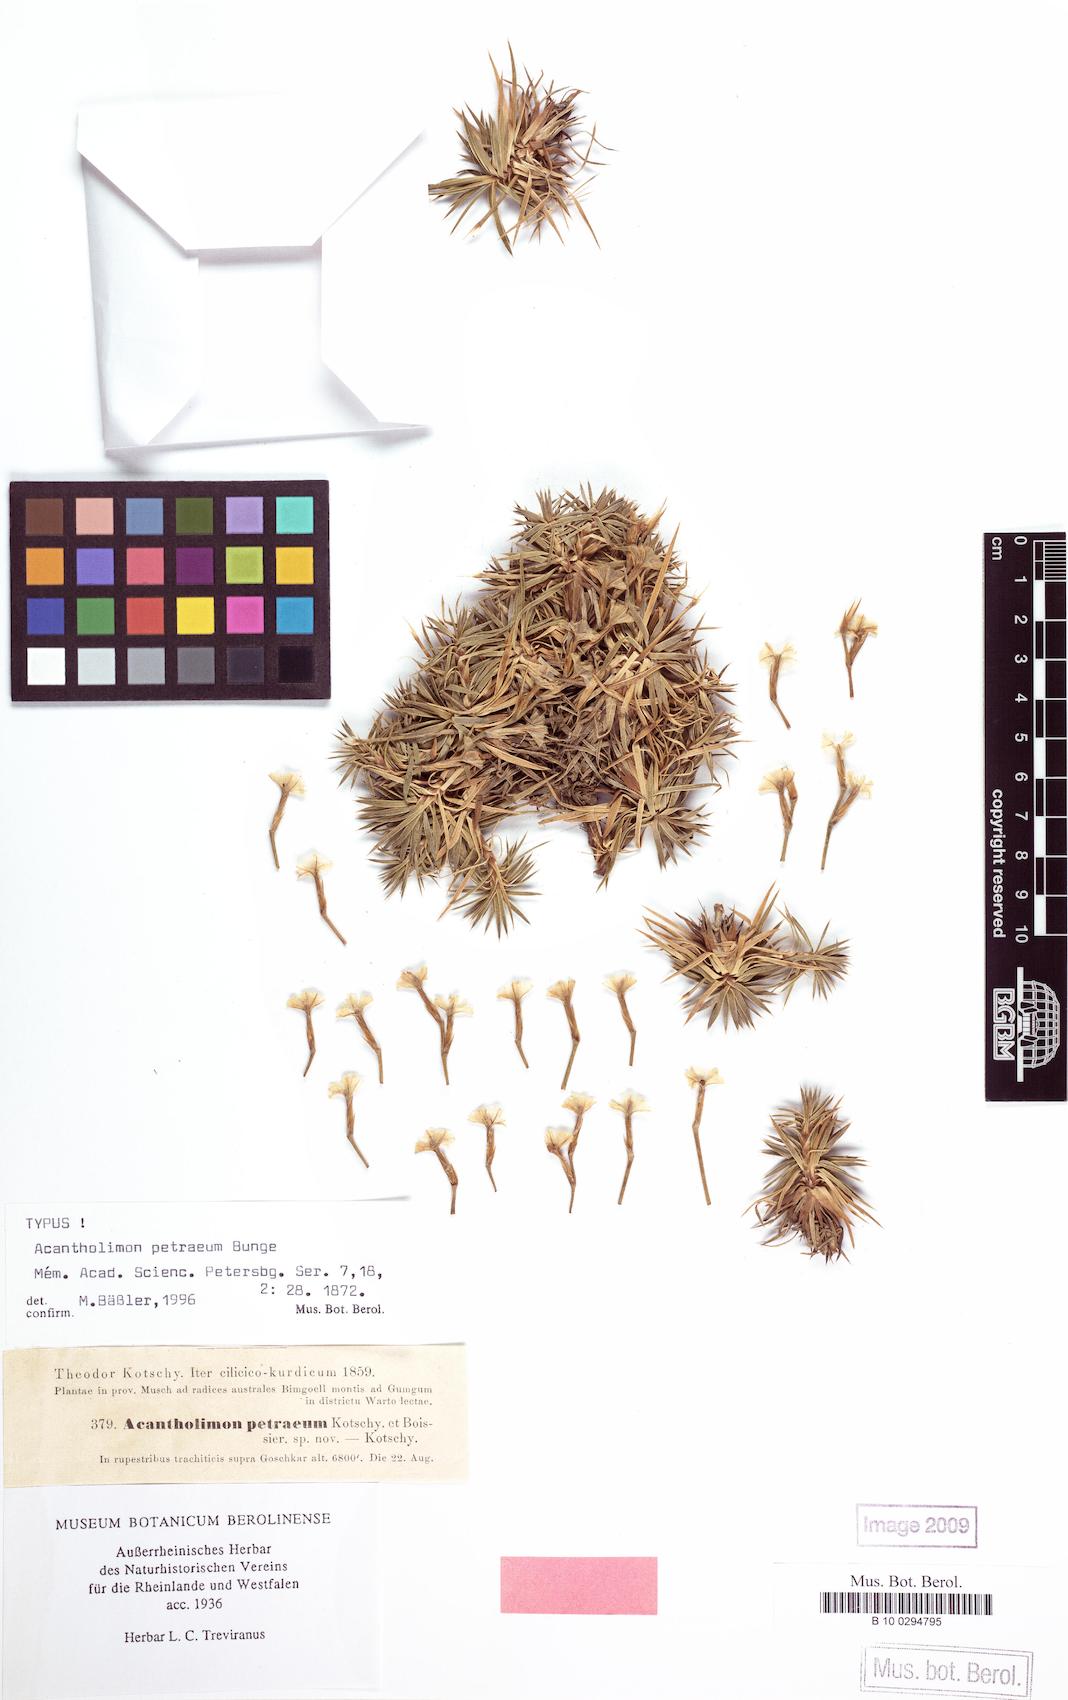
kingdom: Plantae
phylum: Tracheophyta
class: Magnoliopsida
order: Caryophyllales
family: Plumbaginaceae
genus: Acantholimon
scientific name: Acantholimon petraeum
